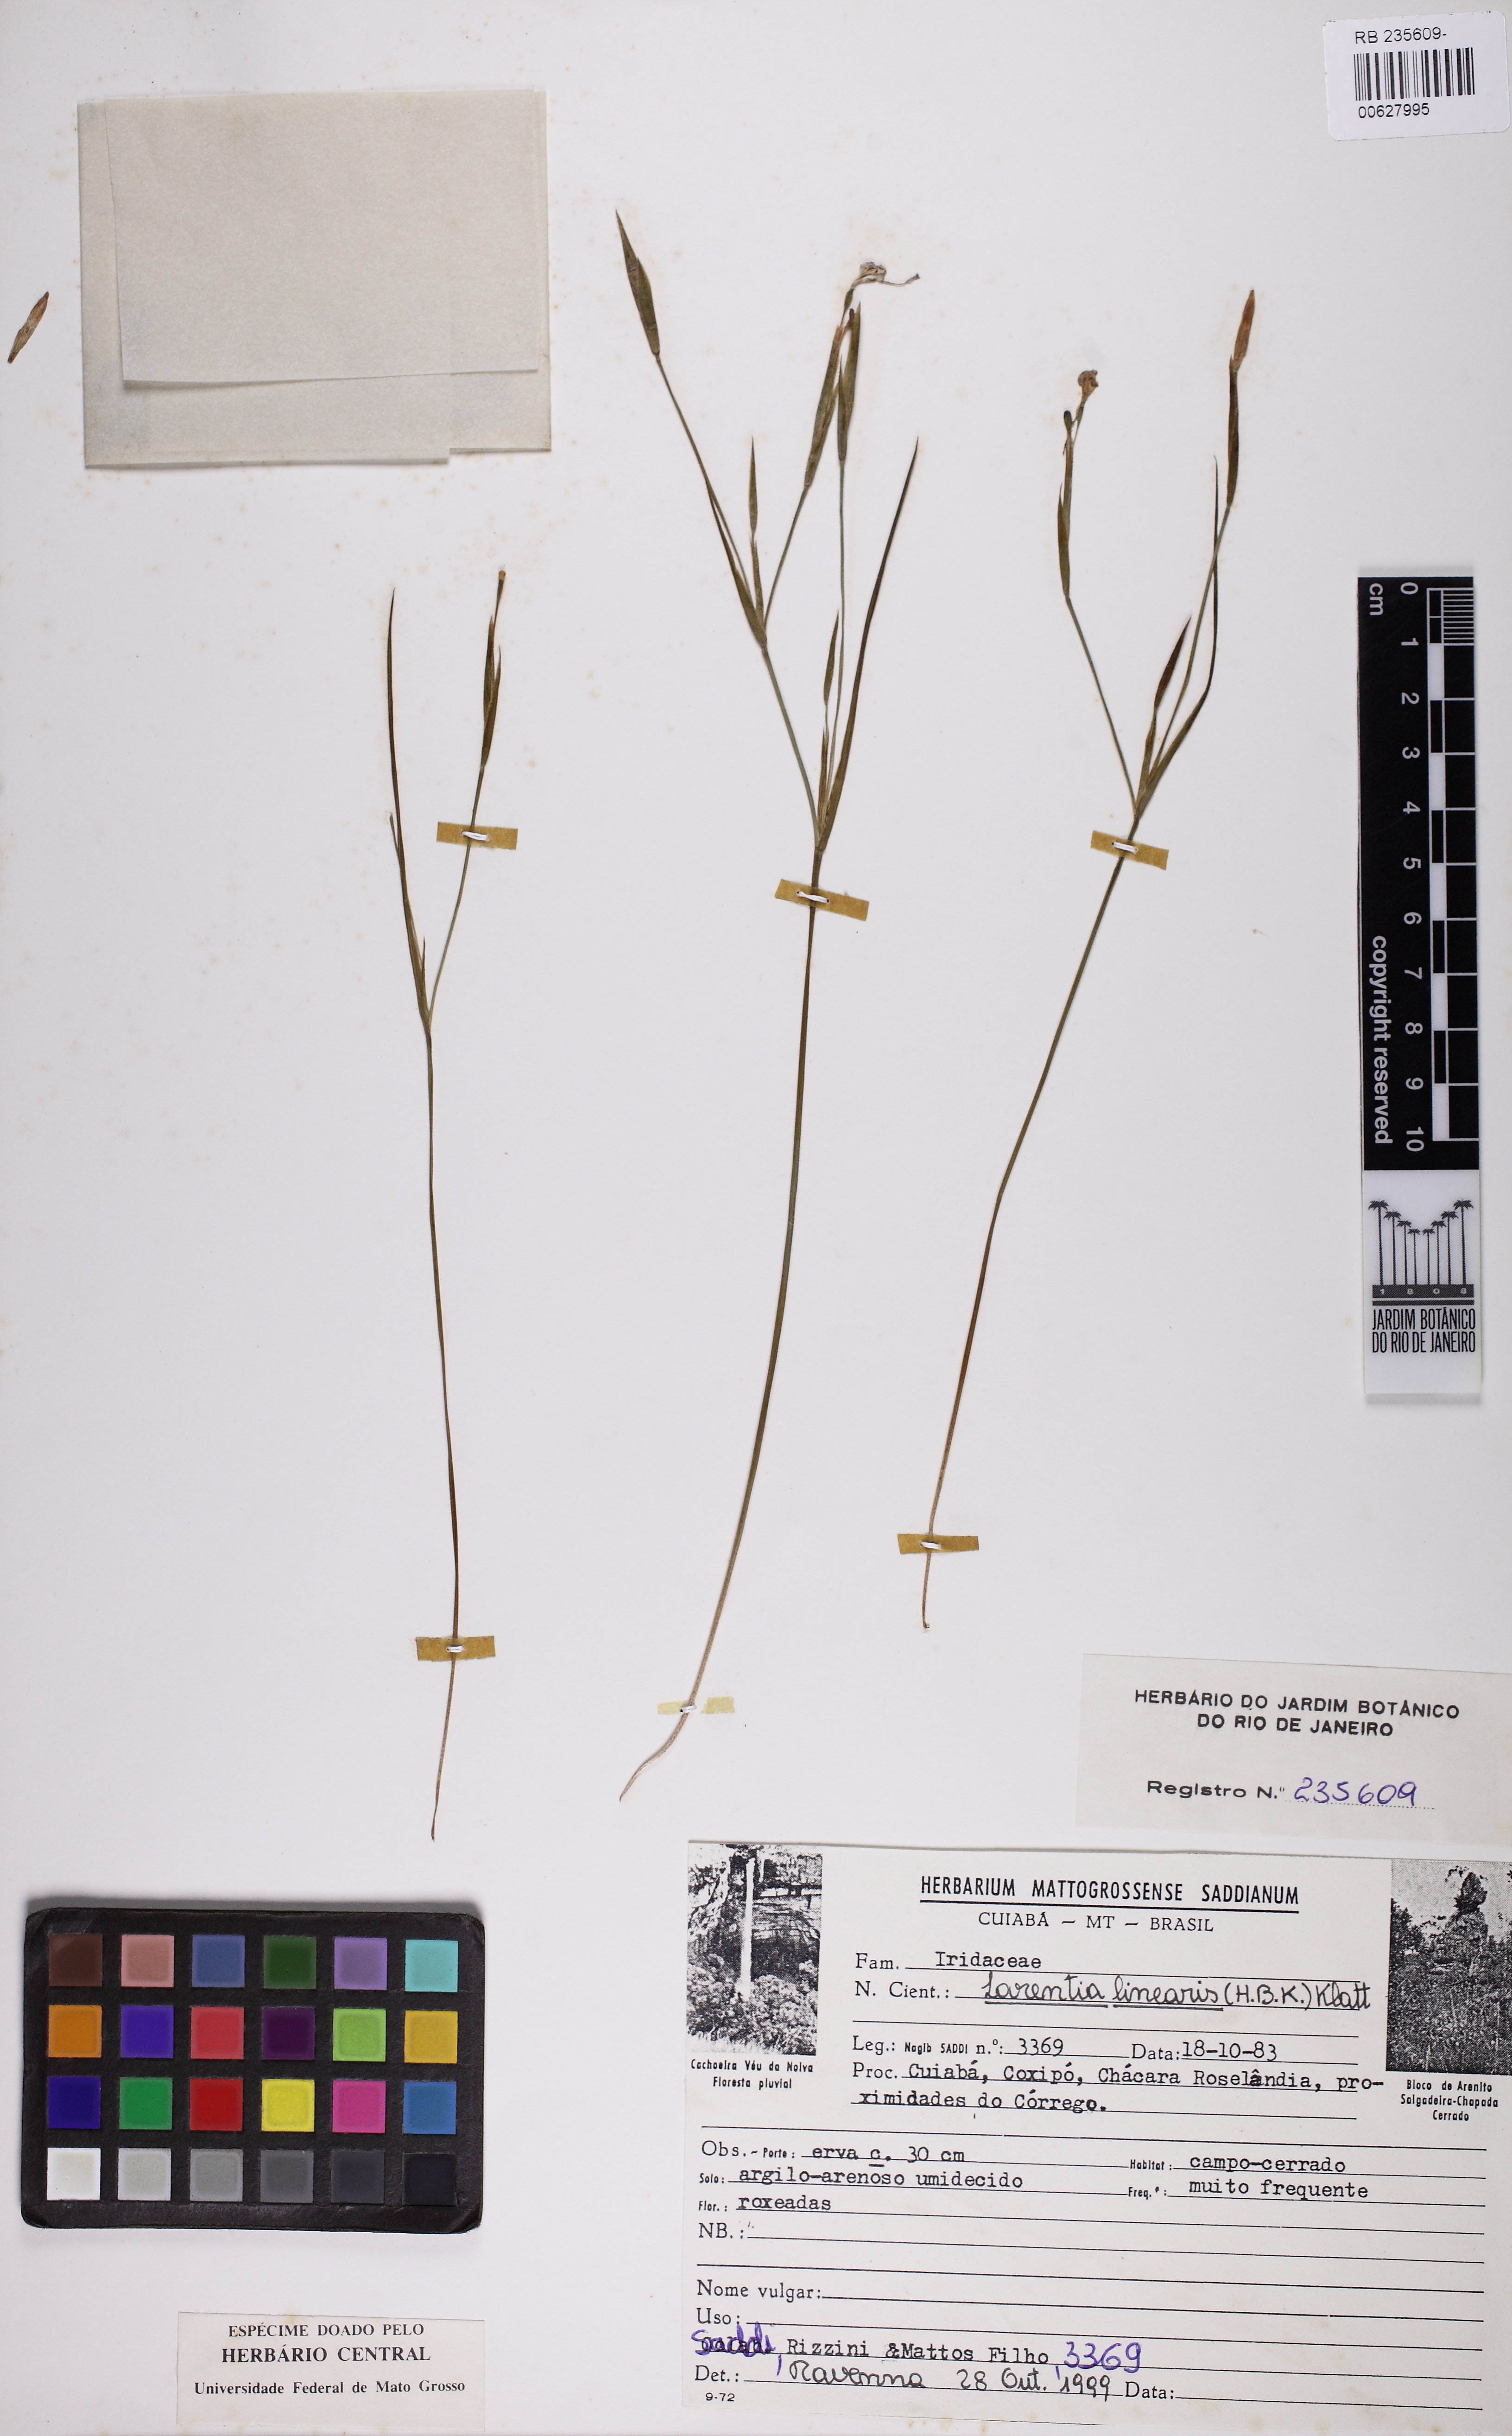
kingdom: Plantae
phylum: Tracheophyta
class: Liliopsida
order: Asparagales
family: Iridaceae
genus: Larentia
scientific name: Larentia linearis
